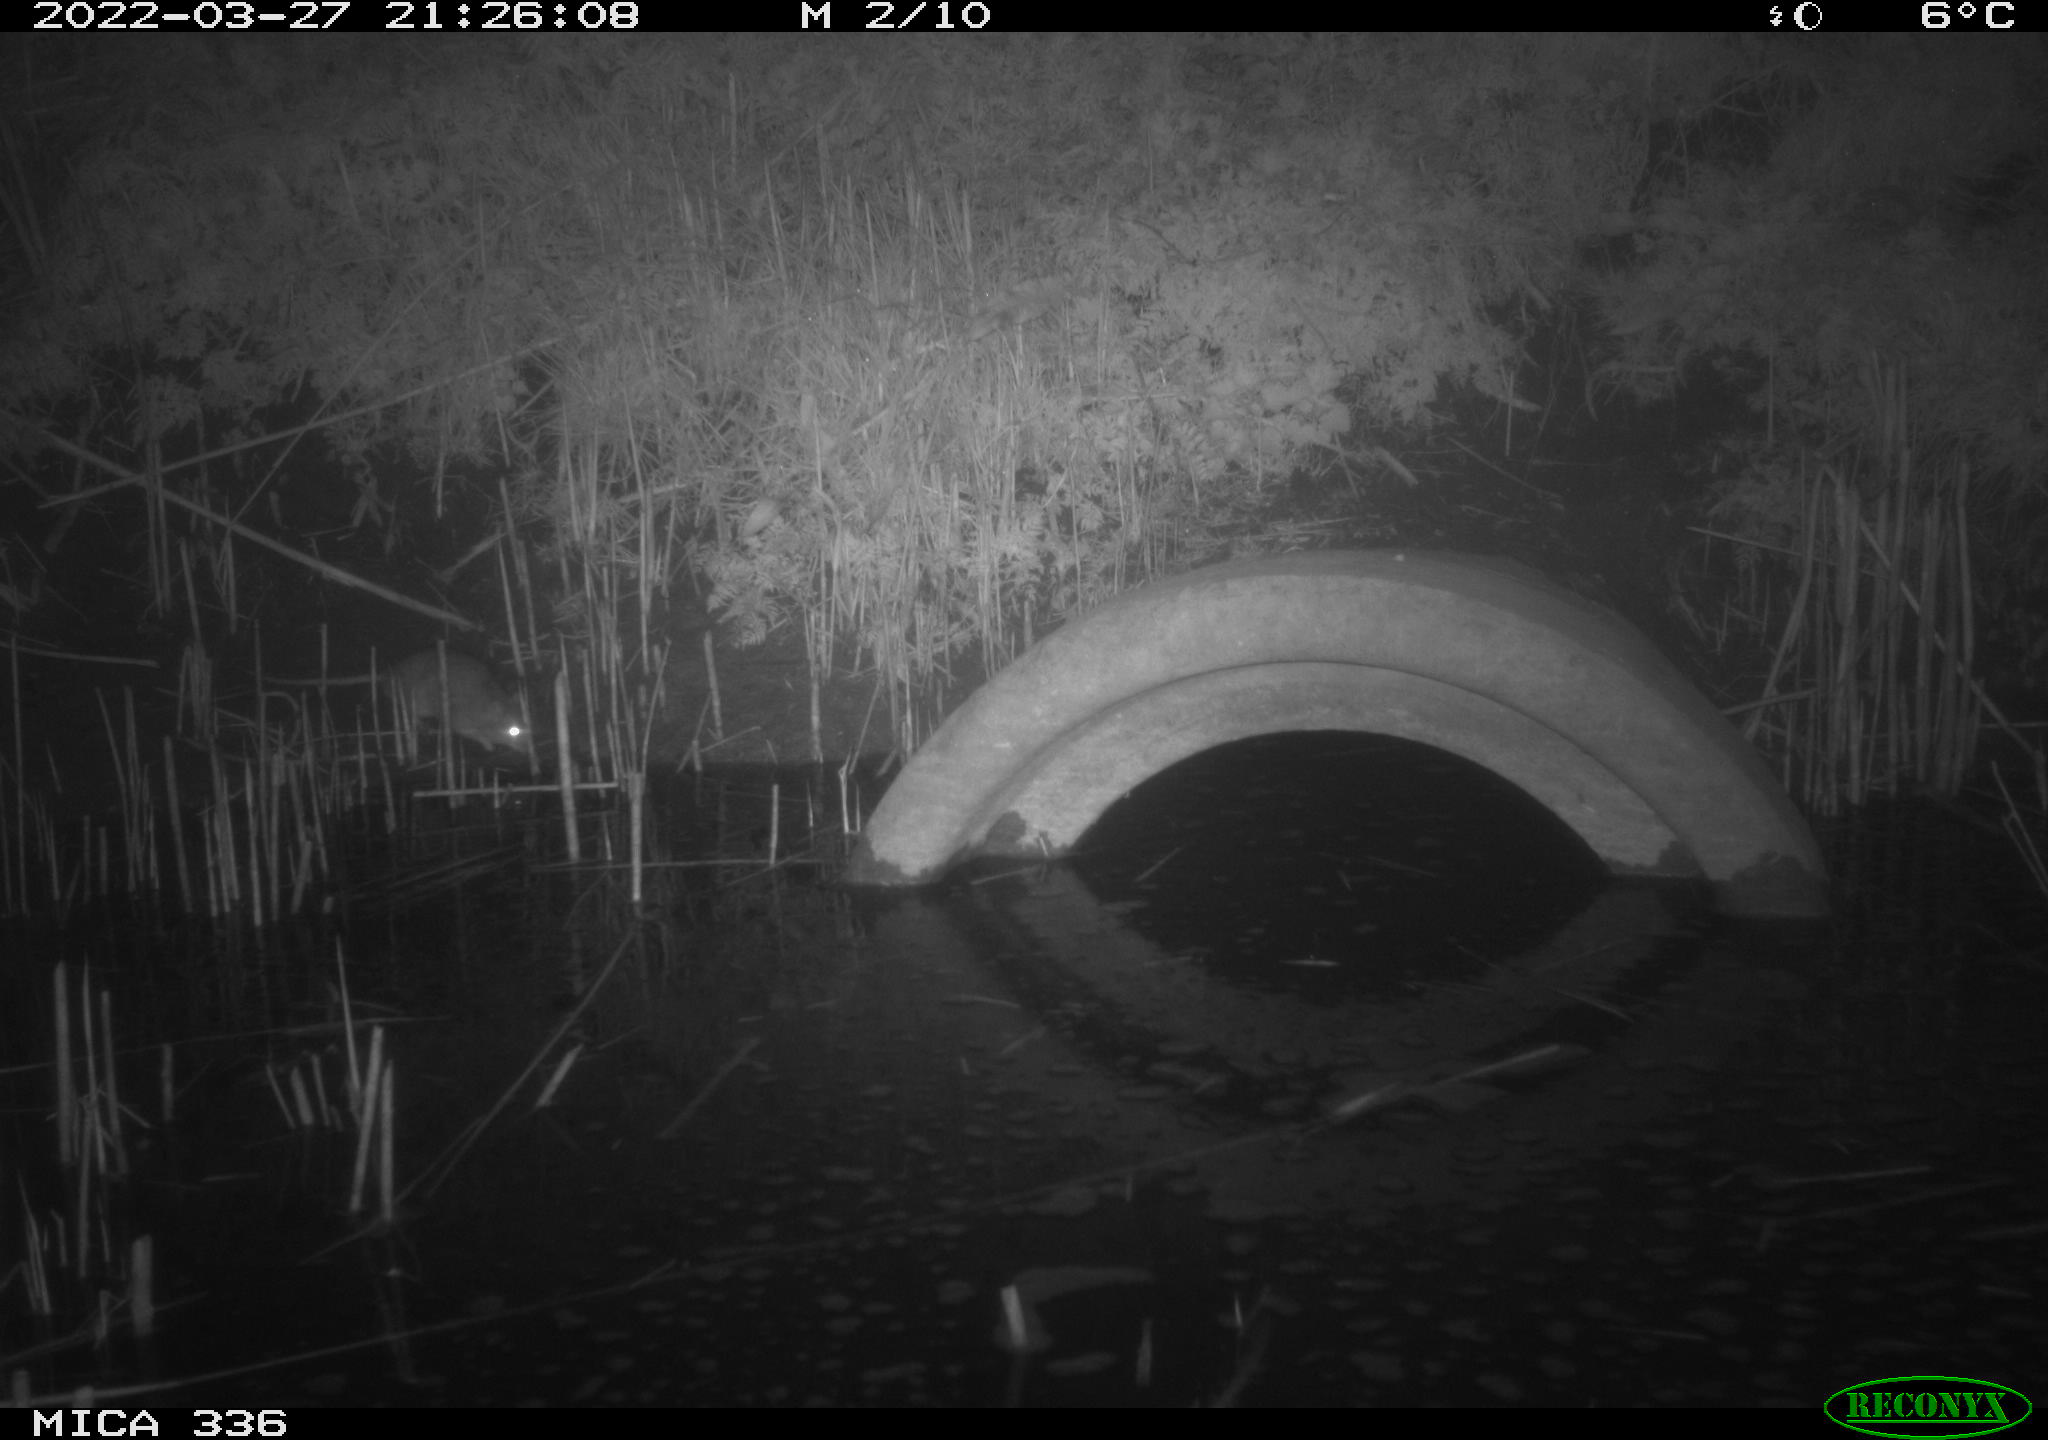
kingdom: Animalia
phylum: Chordata
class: Mammalia
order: Rodentia
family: Muridae
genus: Rattus
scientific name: Rattus norvegicus
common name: Brown rat
